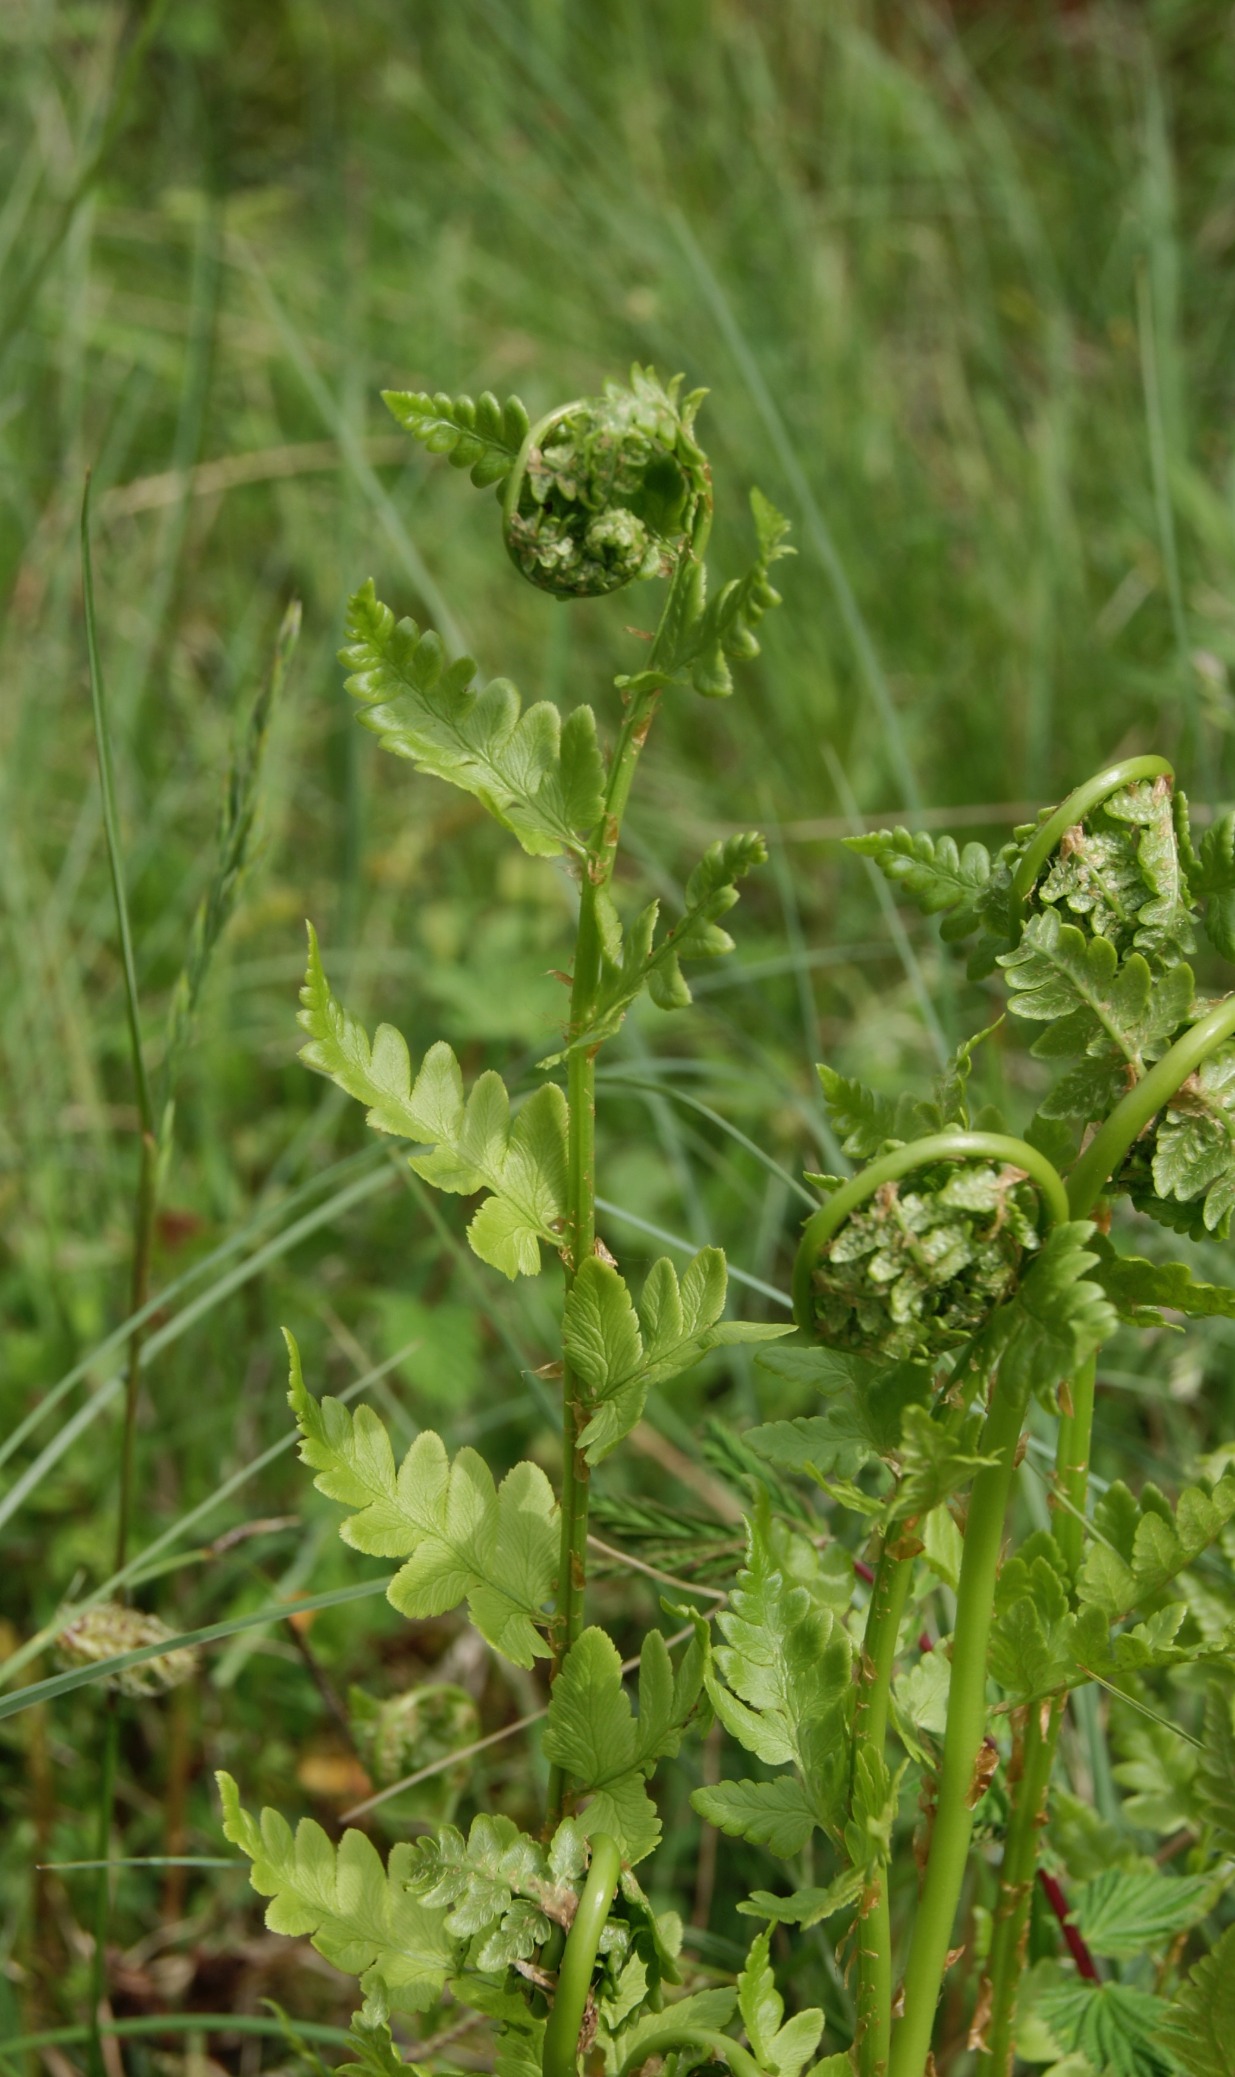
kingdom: Plantae
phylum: Tracheophyta
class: Polypodiopsida
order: Polypodiales
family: Dryopteridaceae
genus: Dryopteris
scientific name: Dryopteris cristata
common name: Butfinnet mangeløv
